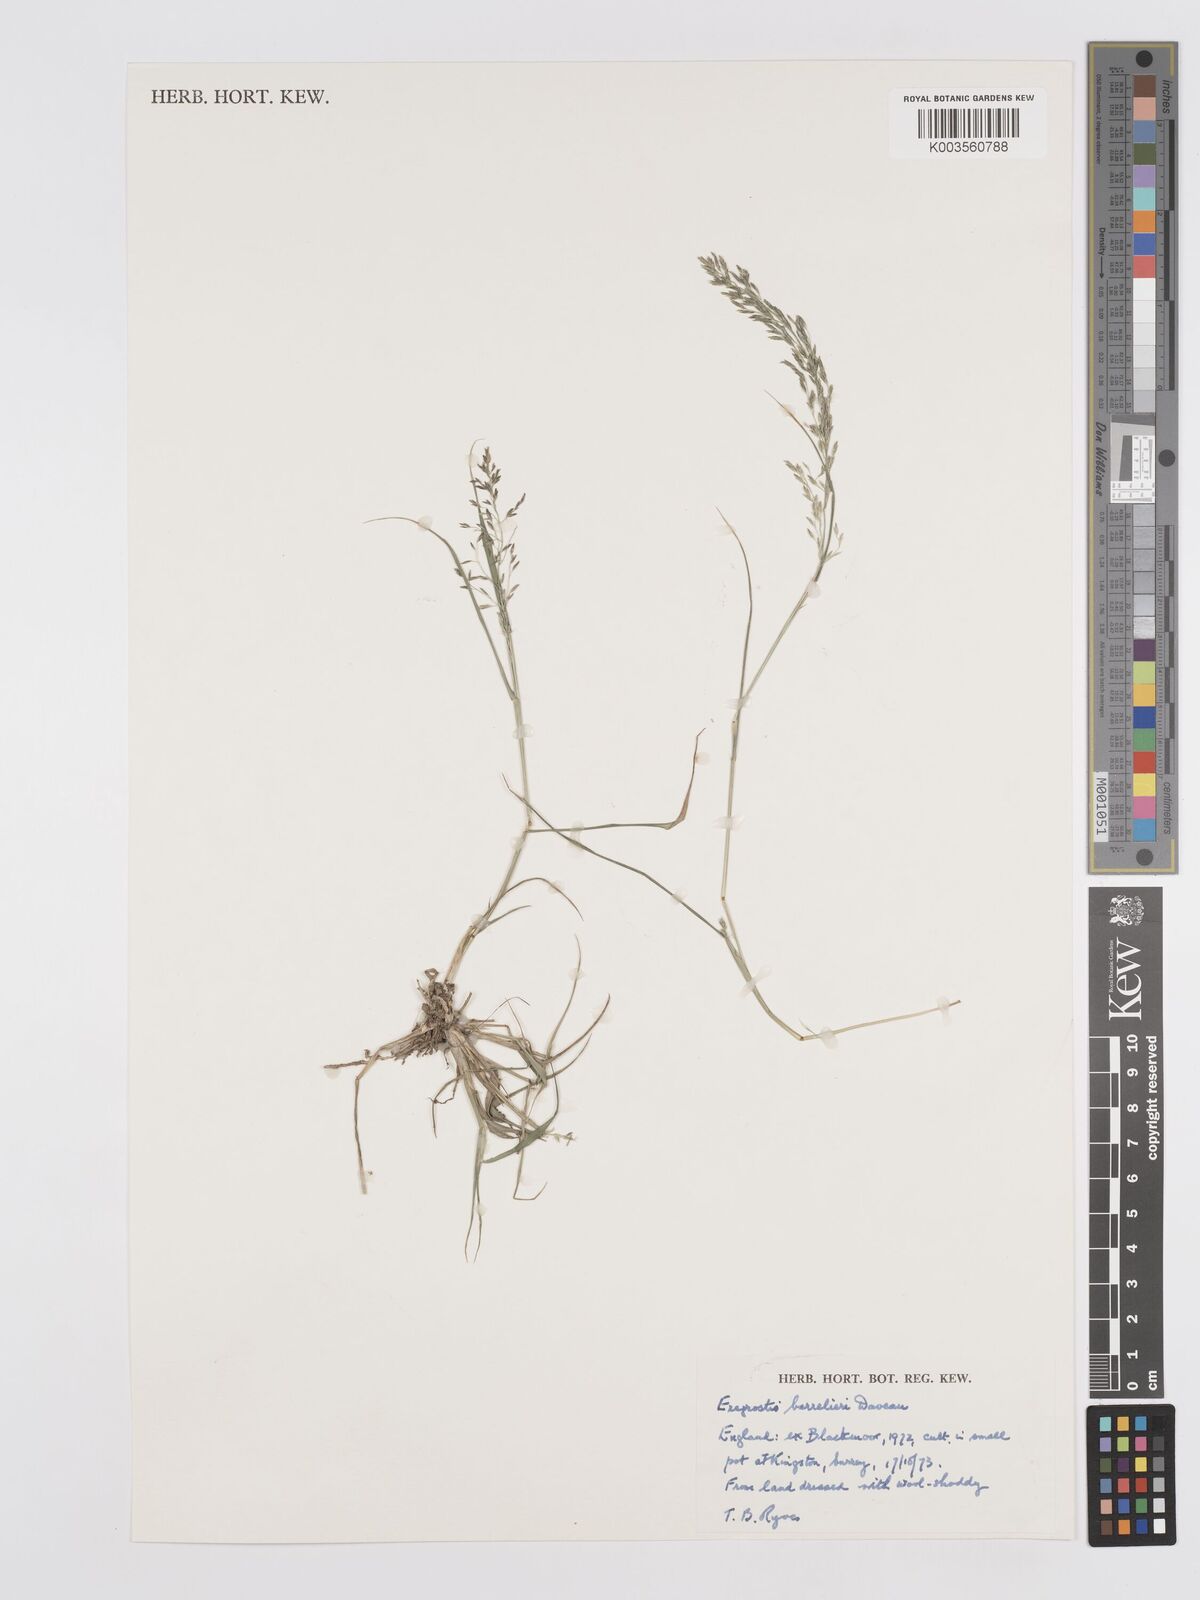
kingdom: Plantae
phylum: Tracheophyta
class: Liliopsida
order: Poales
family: Poaceae
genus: Eragrostis
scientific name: Eragrostis barrelieri
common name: Mediterranean lovegrass
